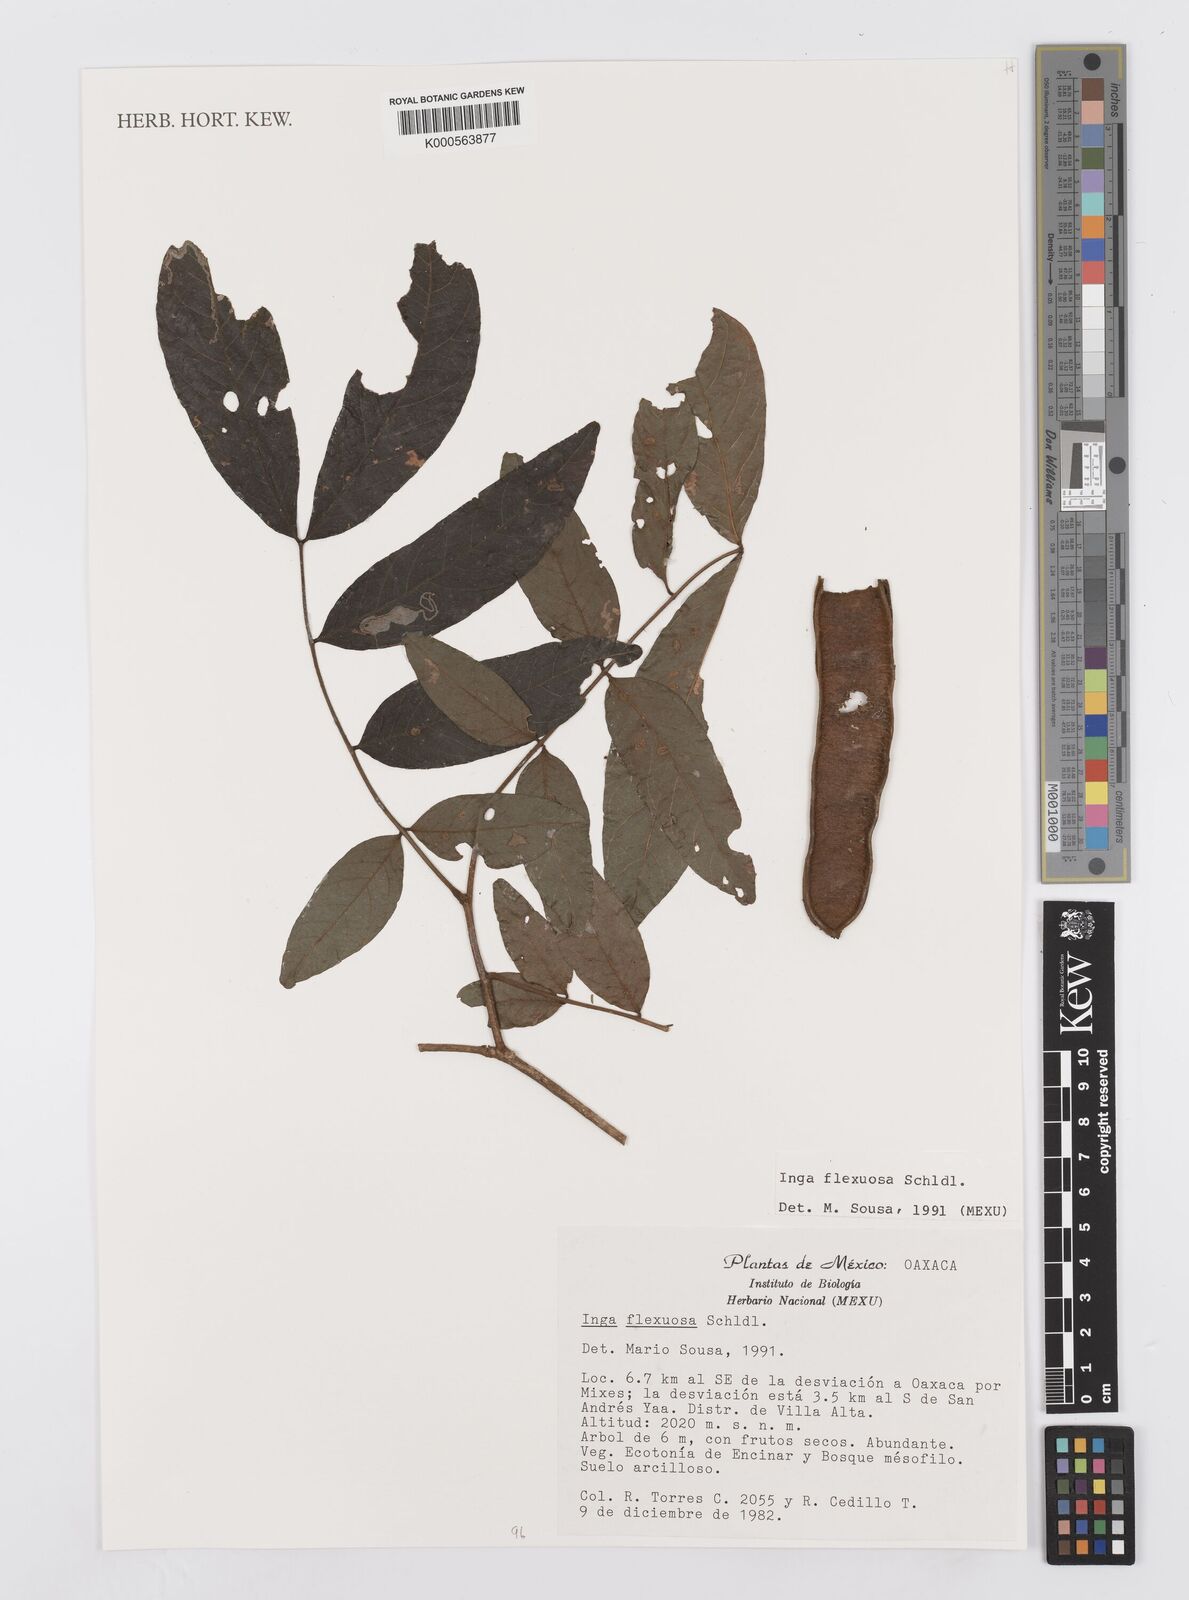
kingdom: Plantae
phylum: Tracheophyta
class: Magnoliopsida
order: Fabales
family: Fabaceae
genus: Inga
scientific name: Inga flexuosa
